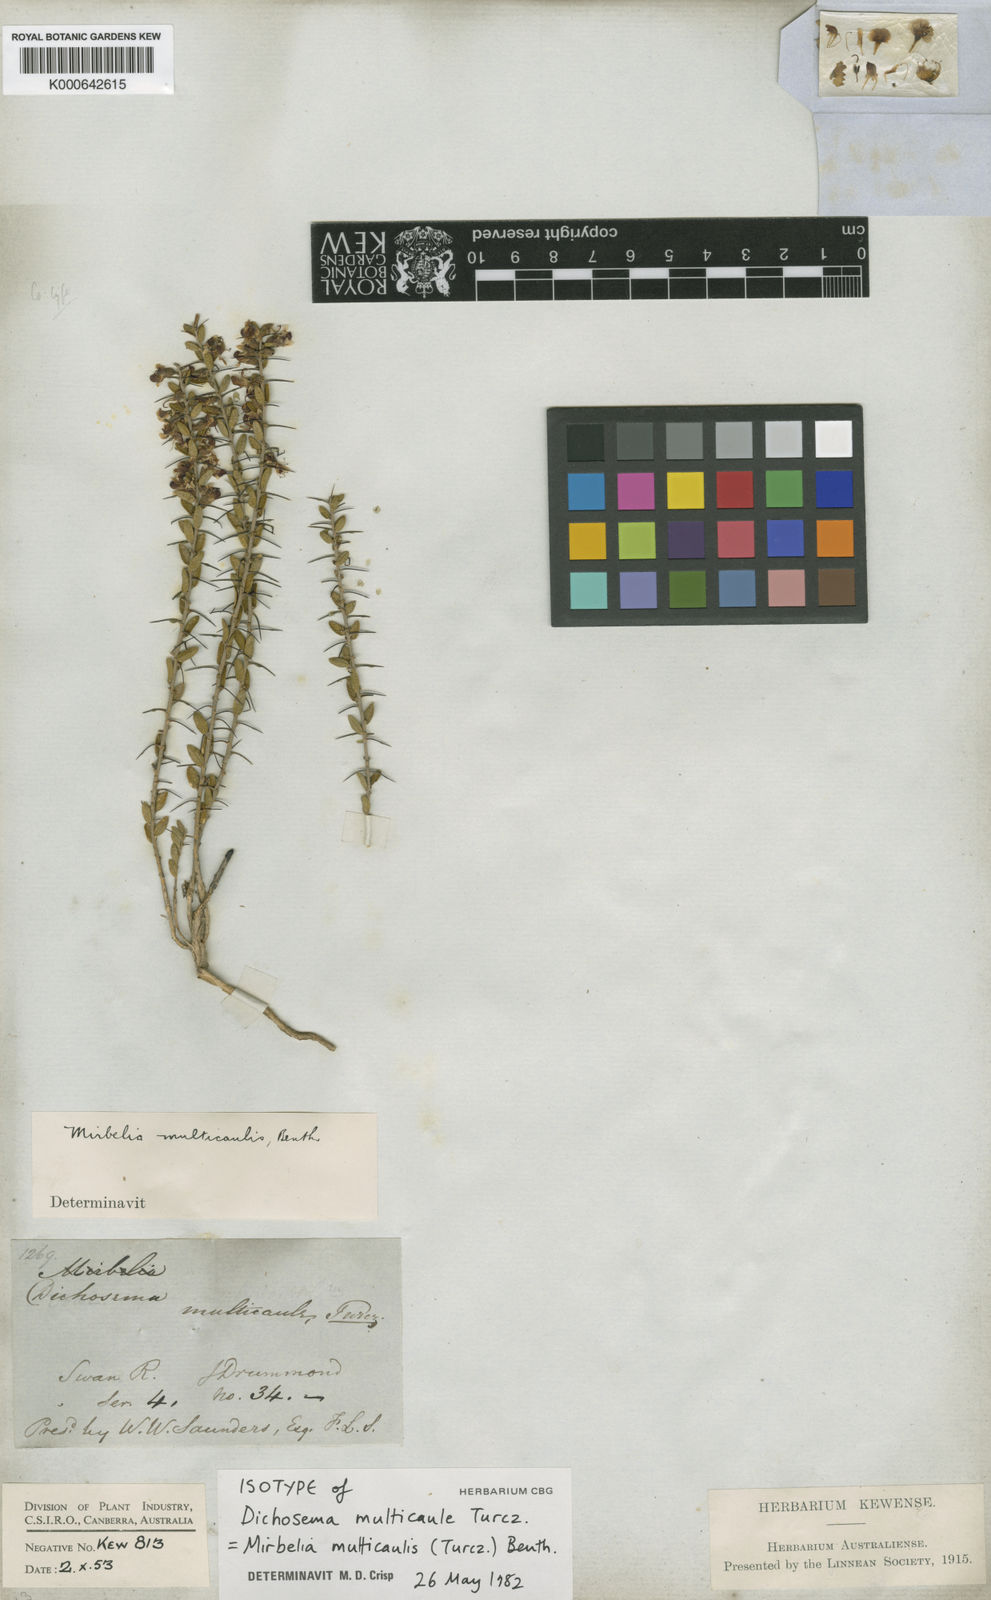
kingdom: Plantae
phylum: Tracheophyta
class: Magnoliopsida
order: Fabales
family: Fabaceae
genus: Mirbelia
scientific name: Mirbelia multicaulis
